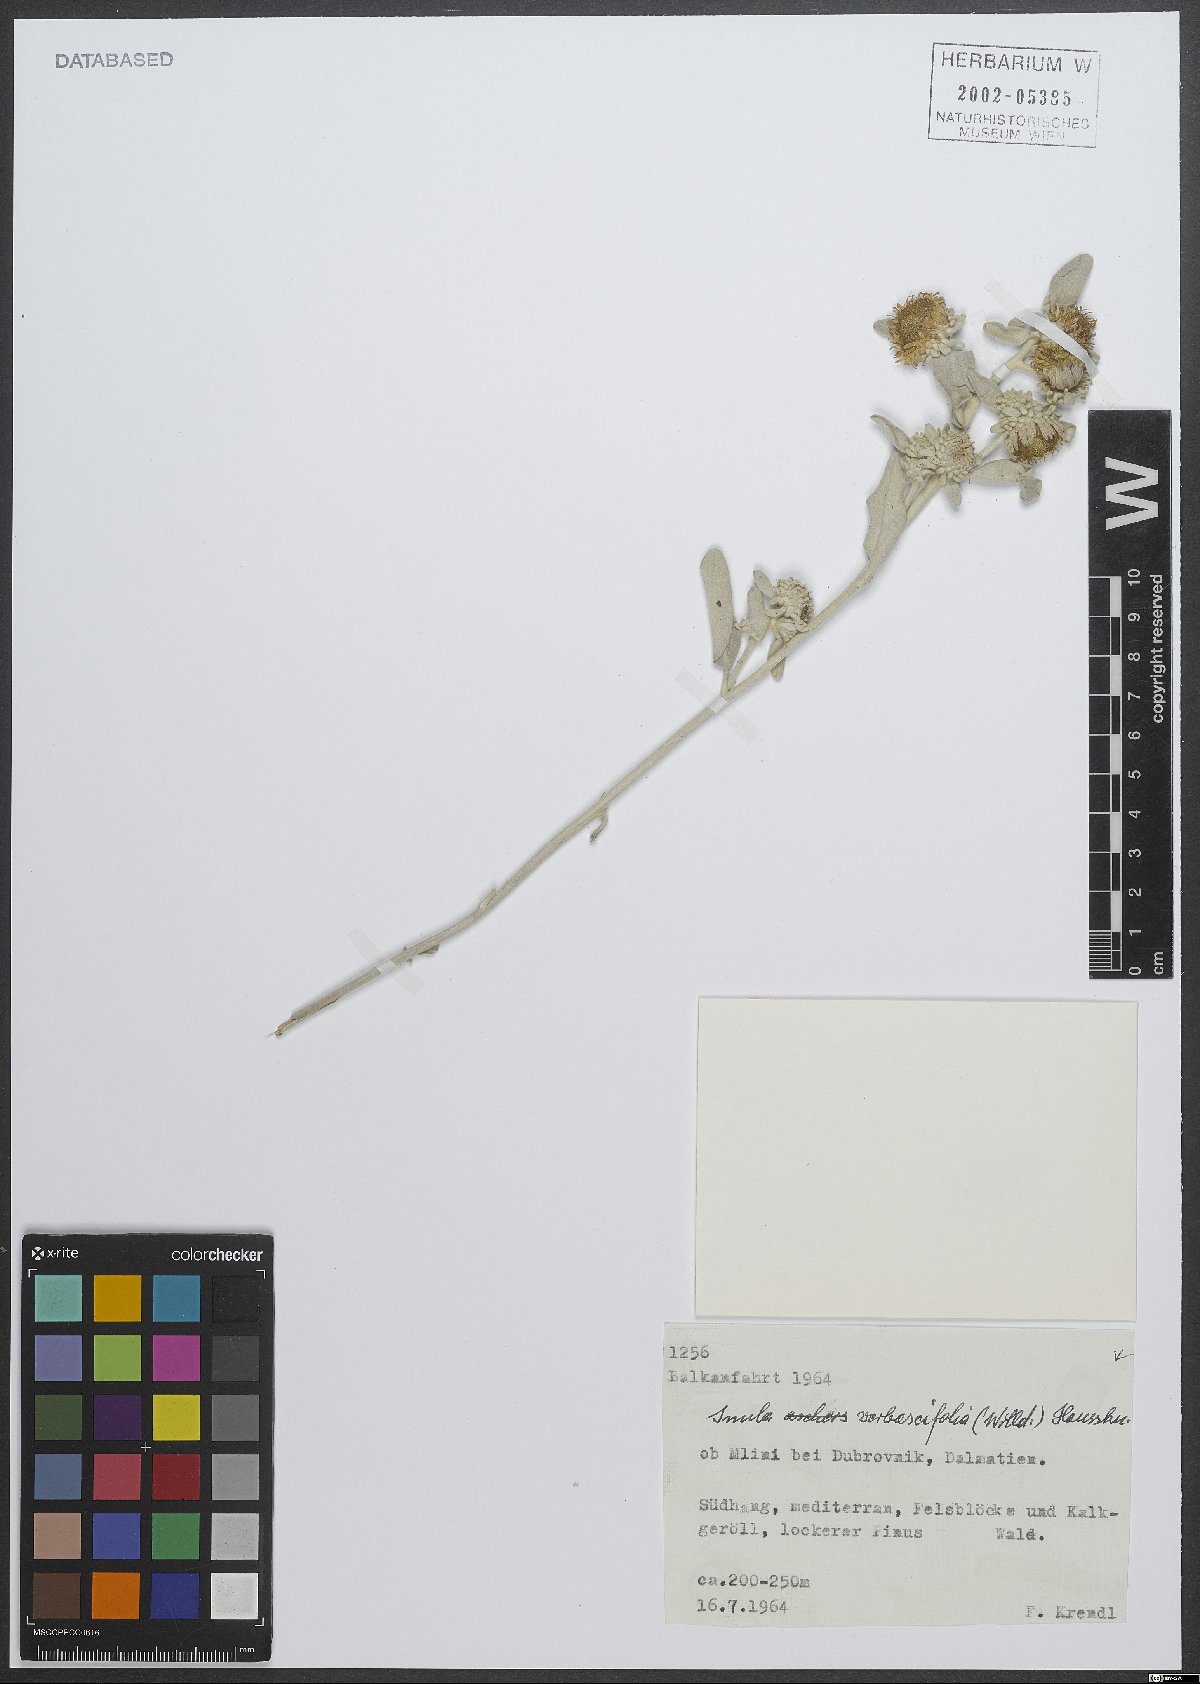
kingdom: Plantae
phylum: Tracheophyta
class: Magnoliopsida
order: Asterales
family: Asteraceae
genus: Pentanema
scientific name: Pentanema verbascifolium
